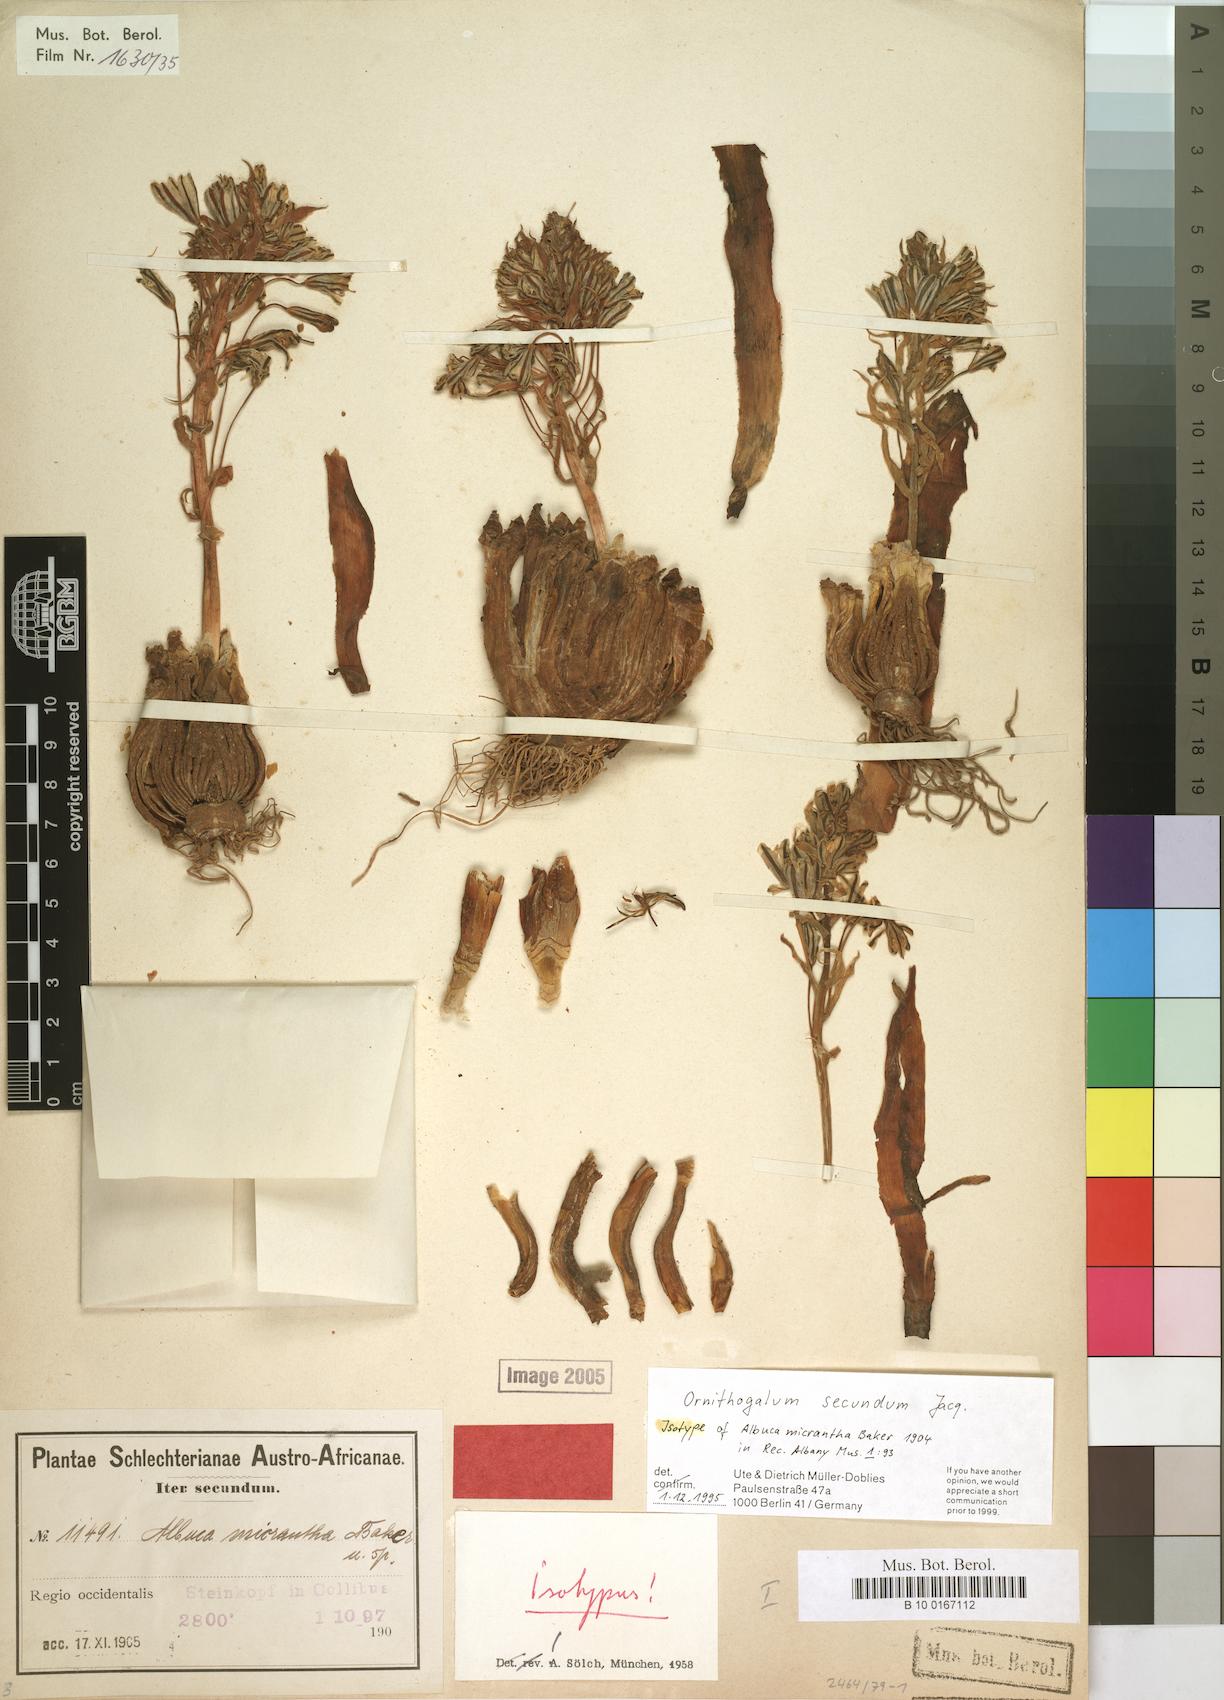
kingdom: Plantae
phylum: Tracheophyta
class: Liliopsida
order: Asparagales
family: Asparagaceae
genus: Albuca
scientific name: Albuca secunda
